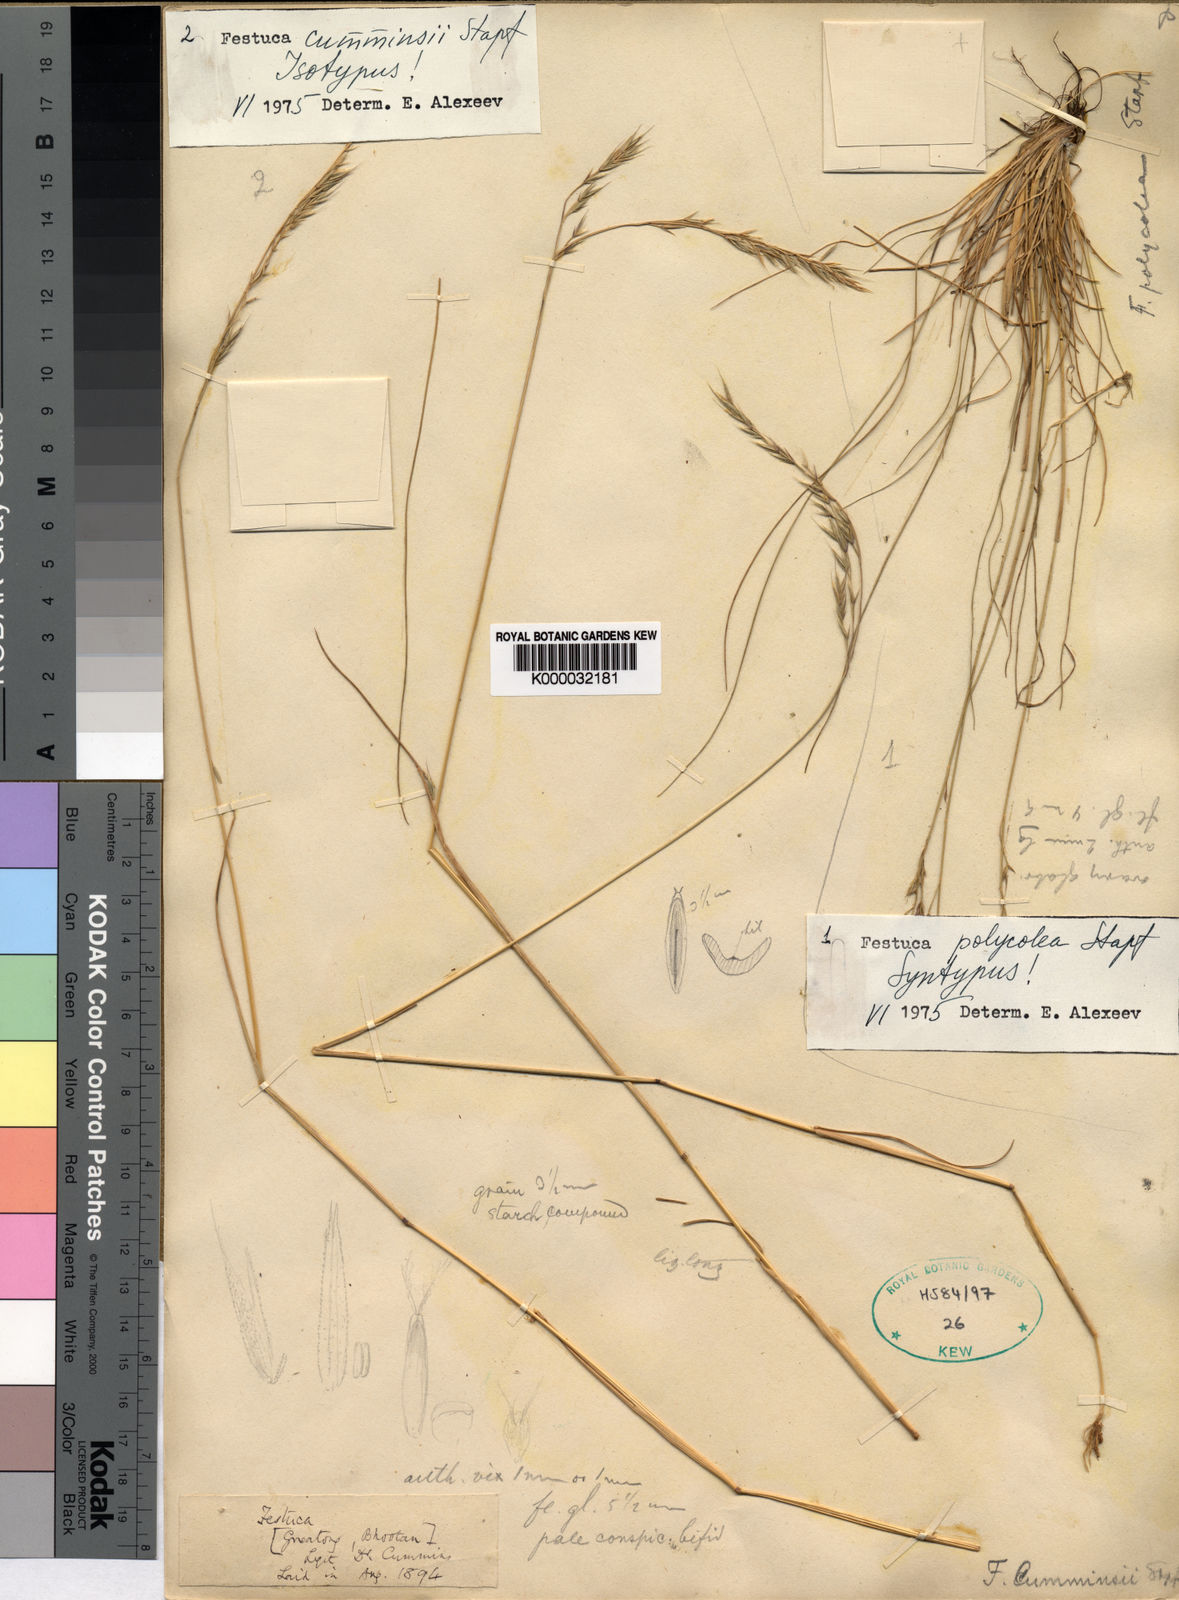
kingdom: Plantae
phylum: Tracheophyta
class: Liliopsida
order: Poales
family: Poaceae
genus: Festuca
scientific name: Festuca cumminsii
